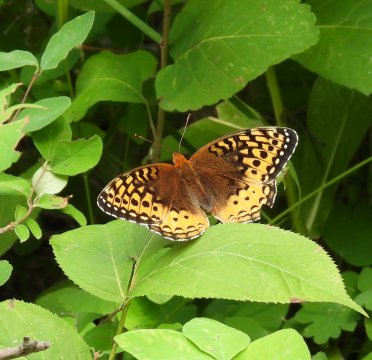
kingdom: Animalia
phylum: Arthropoda
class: Insecta
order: Lepidoptera
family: Nymphalidae
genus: Speyeria
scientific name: Speyeria cybele
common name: Great Spangled Fritillary
